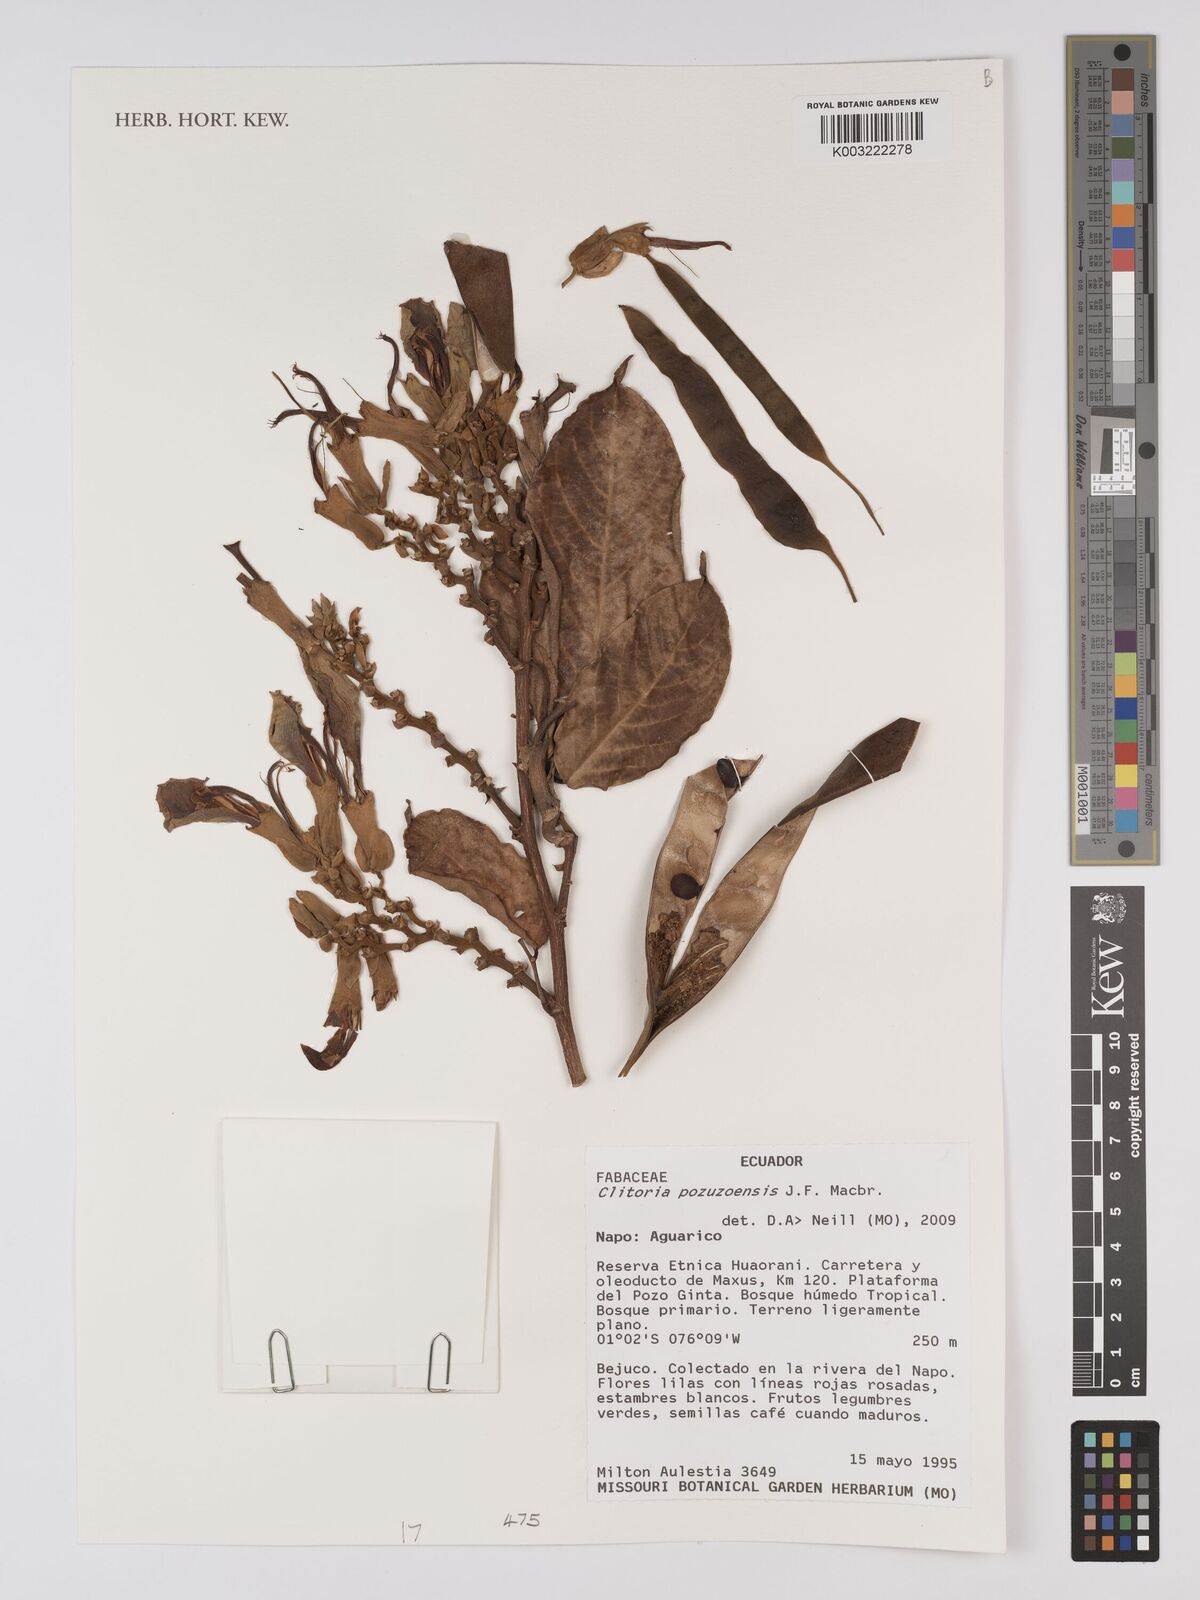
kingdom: Plantae
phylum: Tracheophyta
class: Magnoliopsida
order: Fabales
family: Fabaceae
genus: Clitoria
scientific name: Clitoria pozuzoensis
